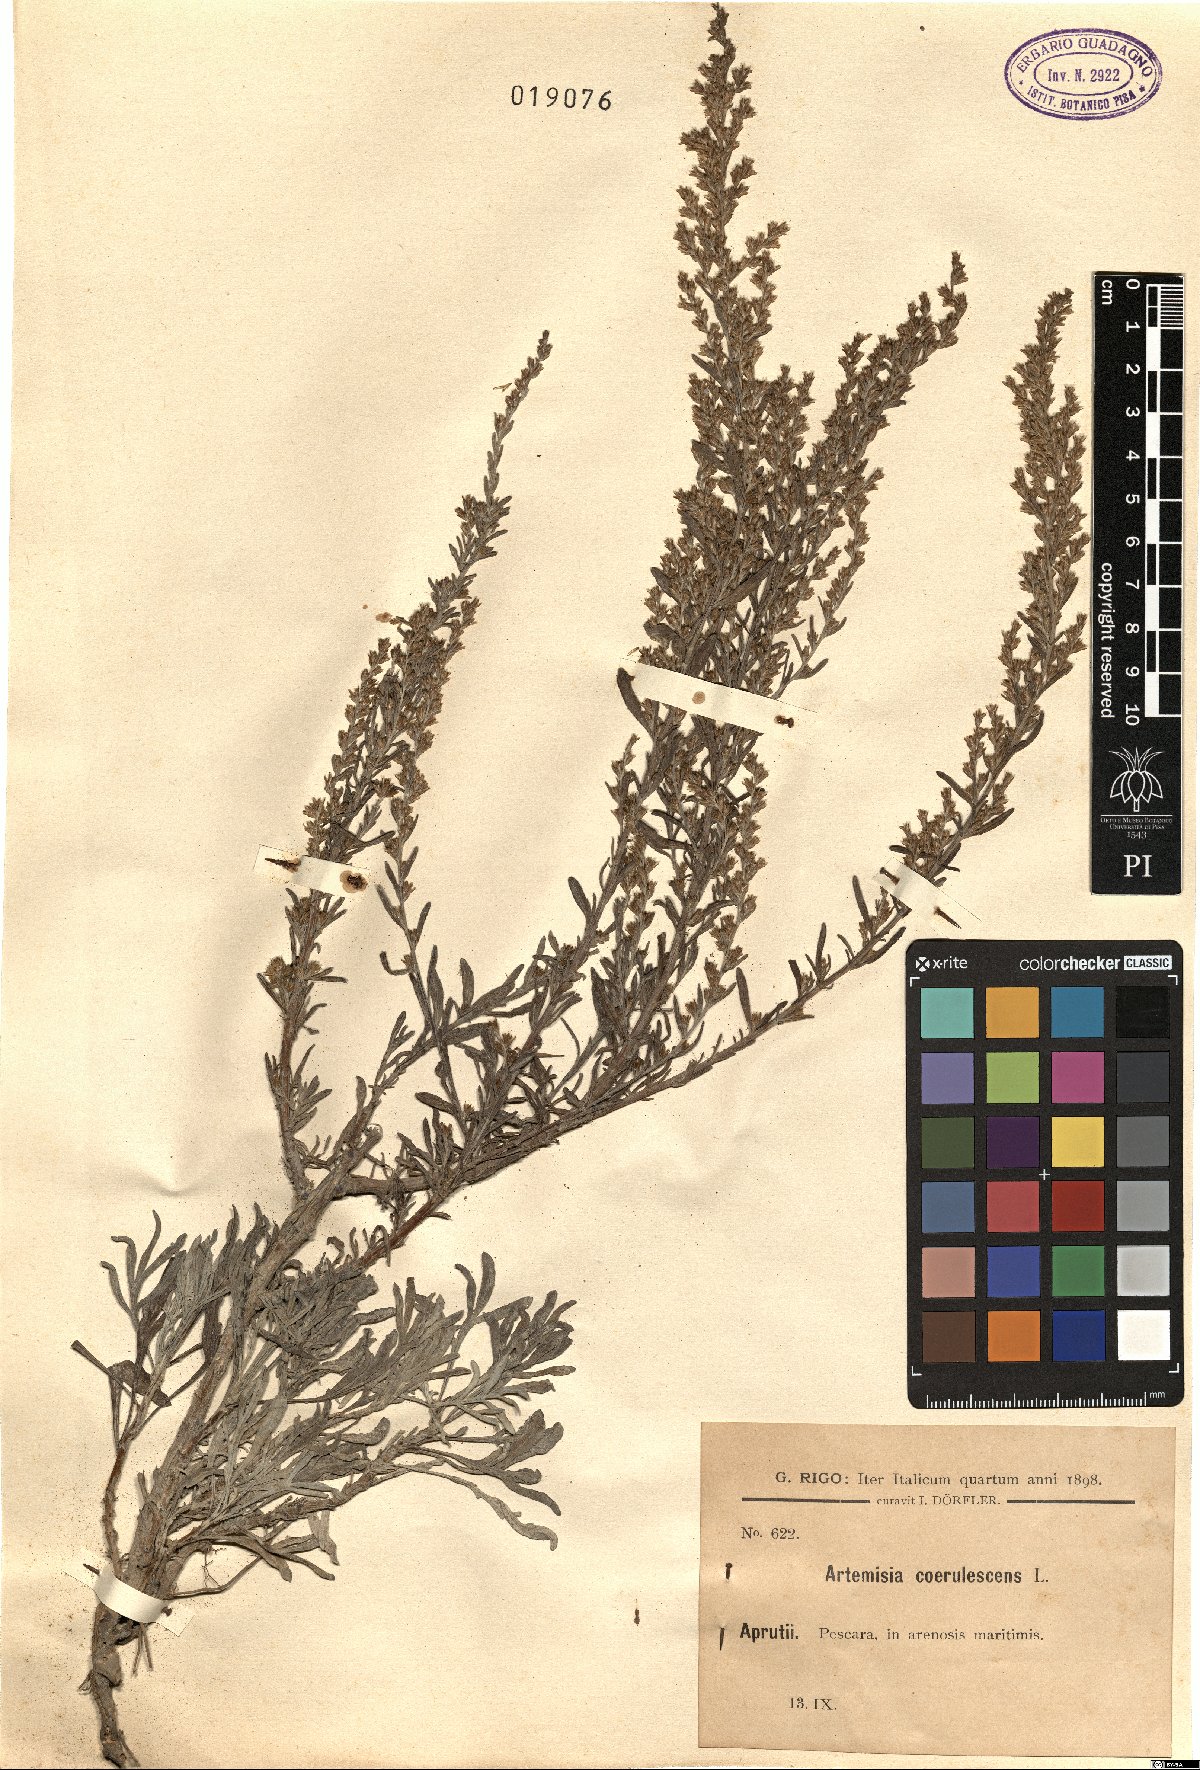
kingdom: Plantae
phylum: Tracheophyta
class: Magnoliopsida
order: Asterales
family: Asteraceae
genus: Artemisia
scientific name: Artemisia caerulescens
